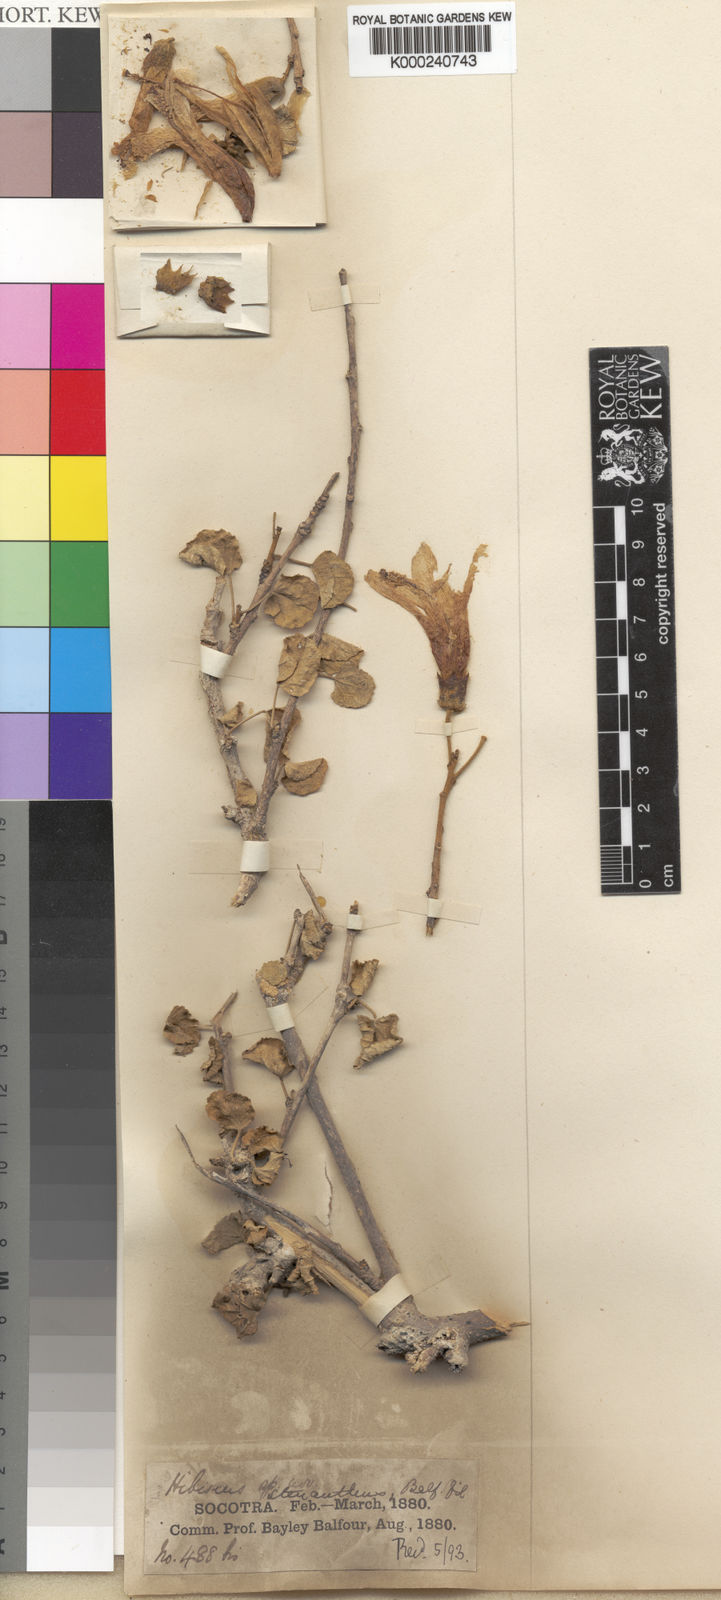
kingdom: Plantae
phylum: Tracheophyta
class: Magnoliopsida
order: Malvales
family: Malvaceae
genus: Hibiscus
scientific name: Hibiscus stenanthus
